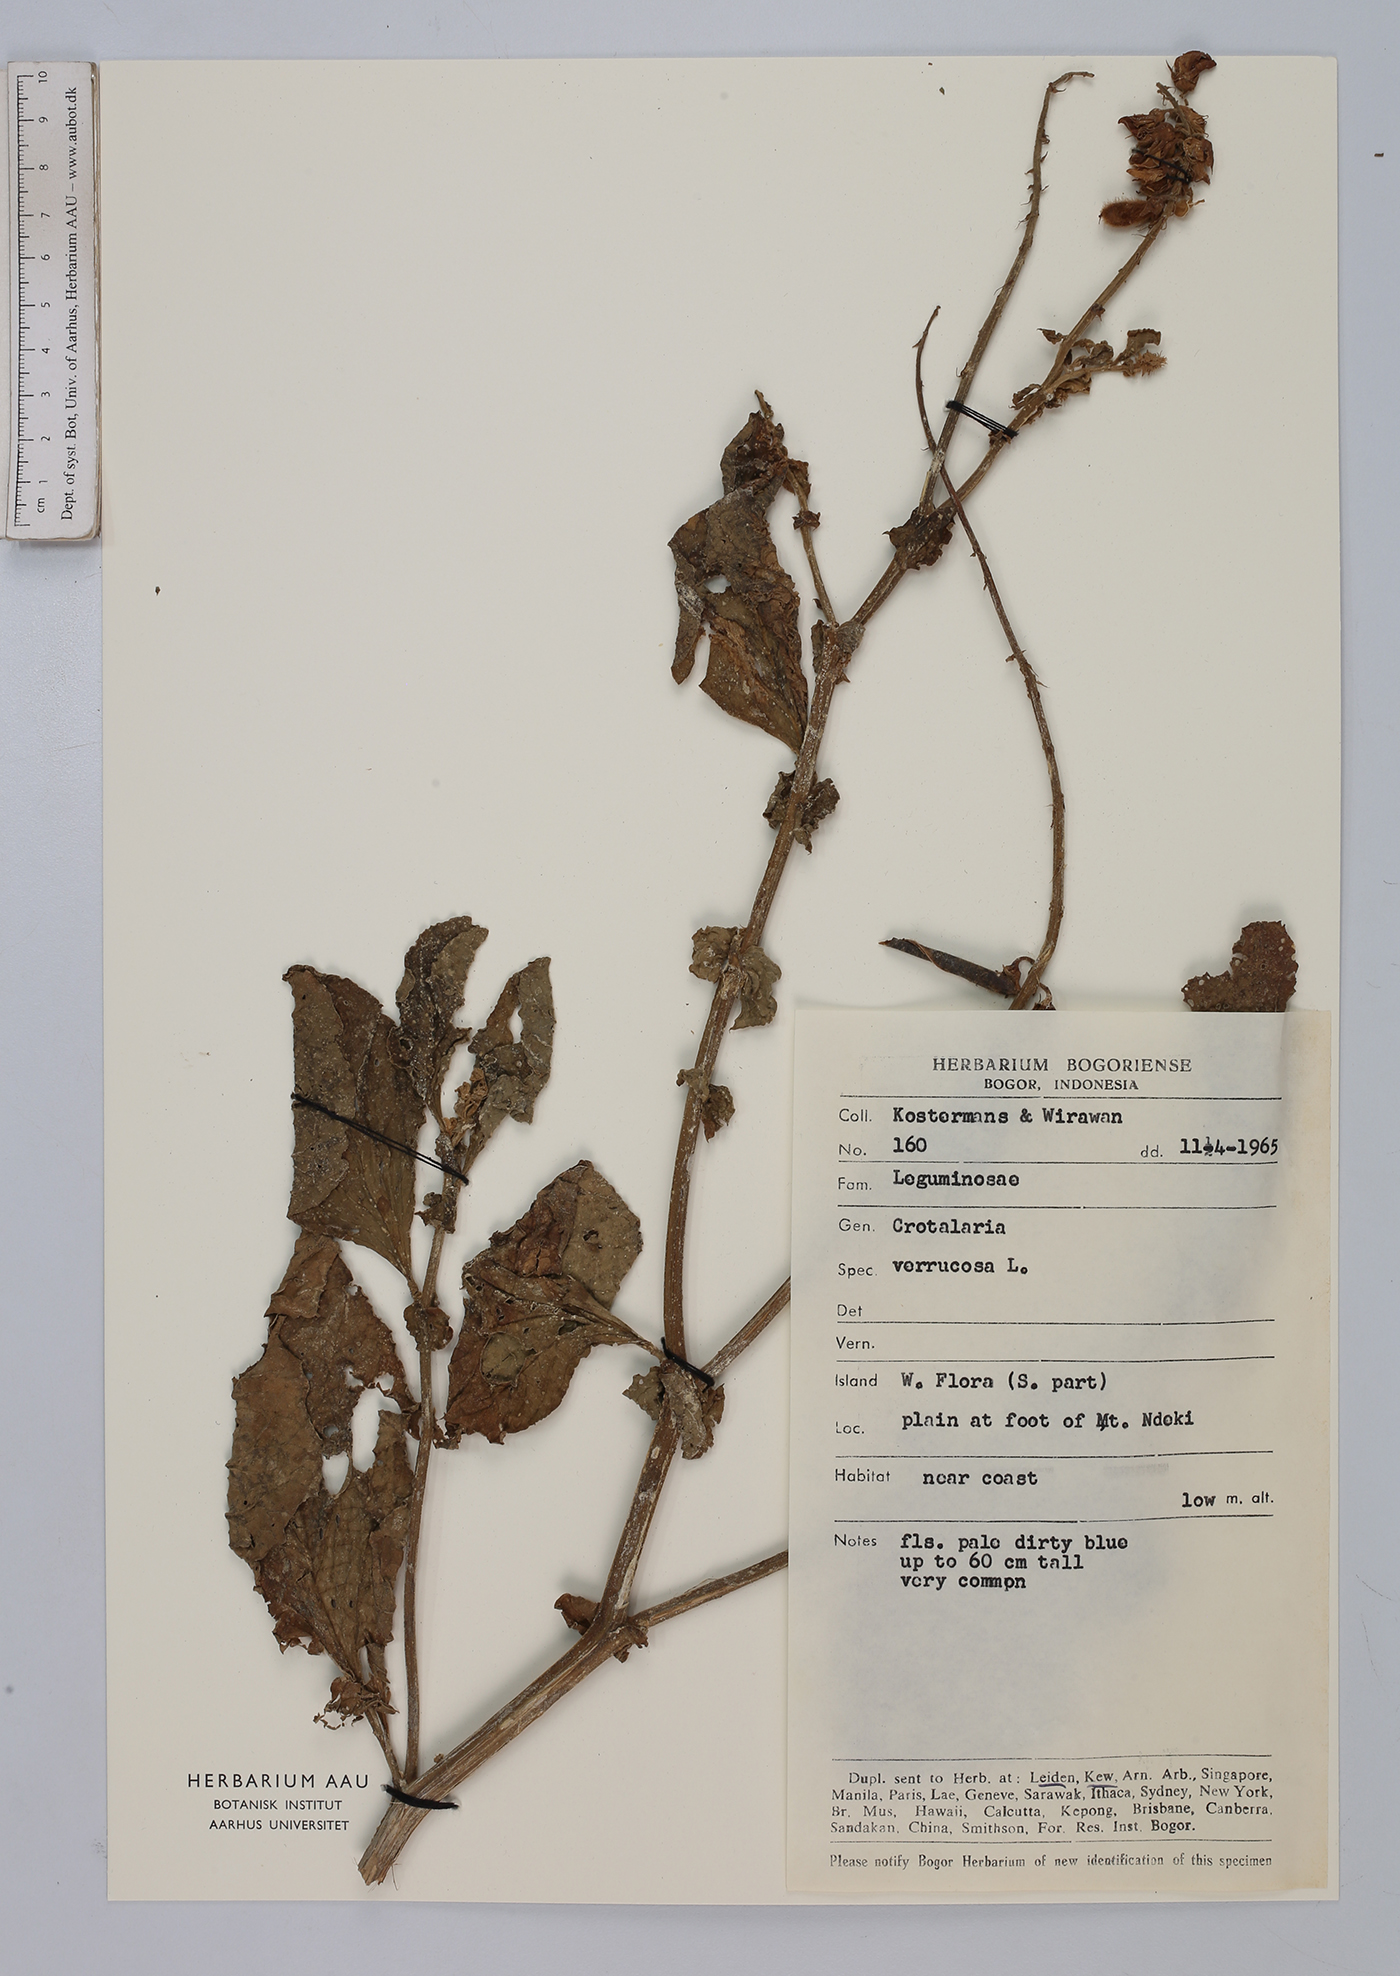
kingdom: Plantae
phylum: Tracheophyta
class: Magnoliopsida
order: Fabales
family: Fabaceae
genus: Crotalaria
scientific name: Crotalaria verrucosa
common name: Blue rattlesnake
